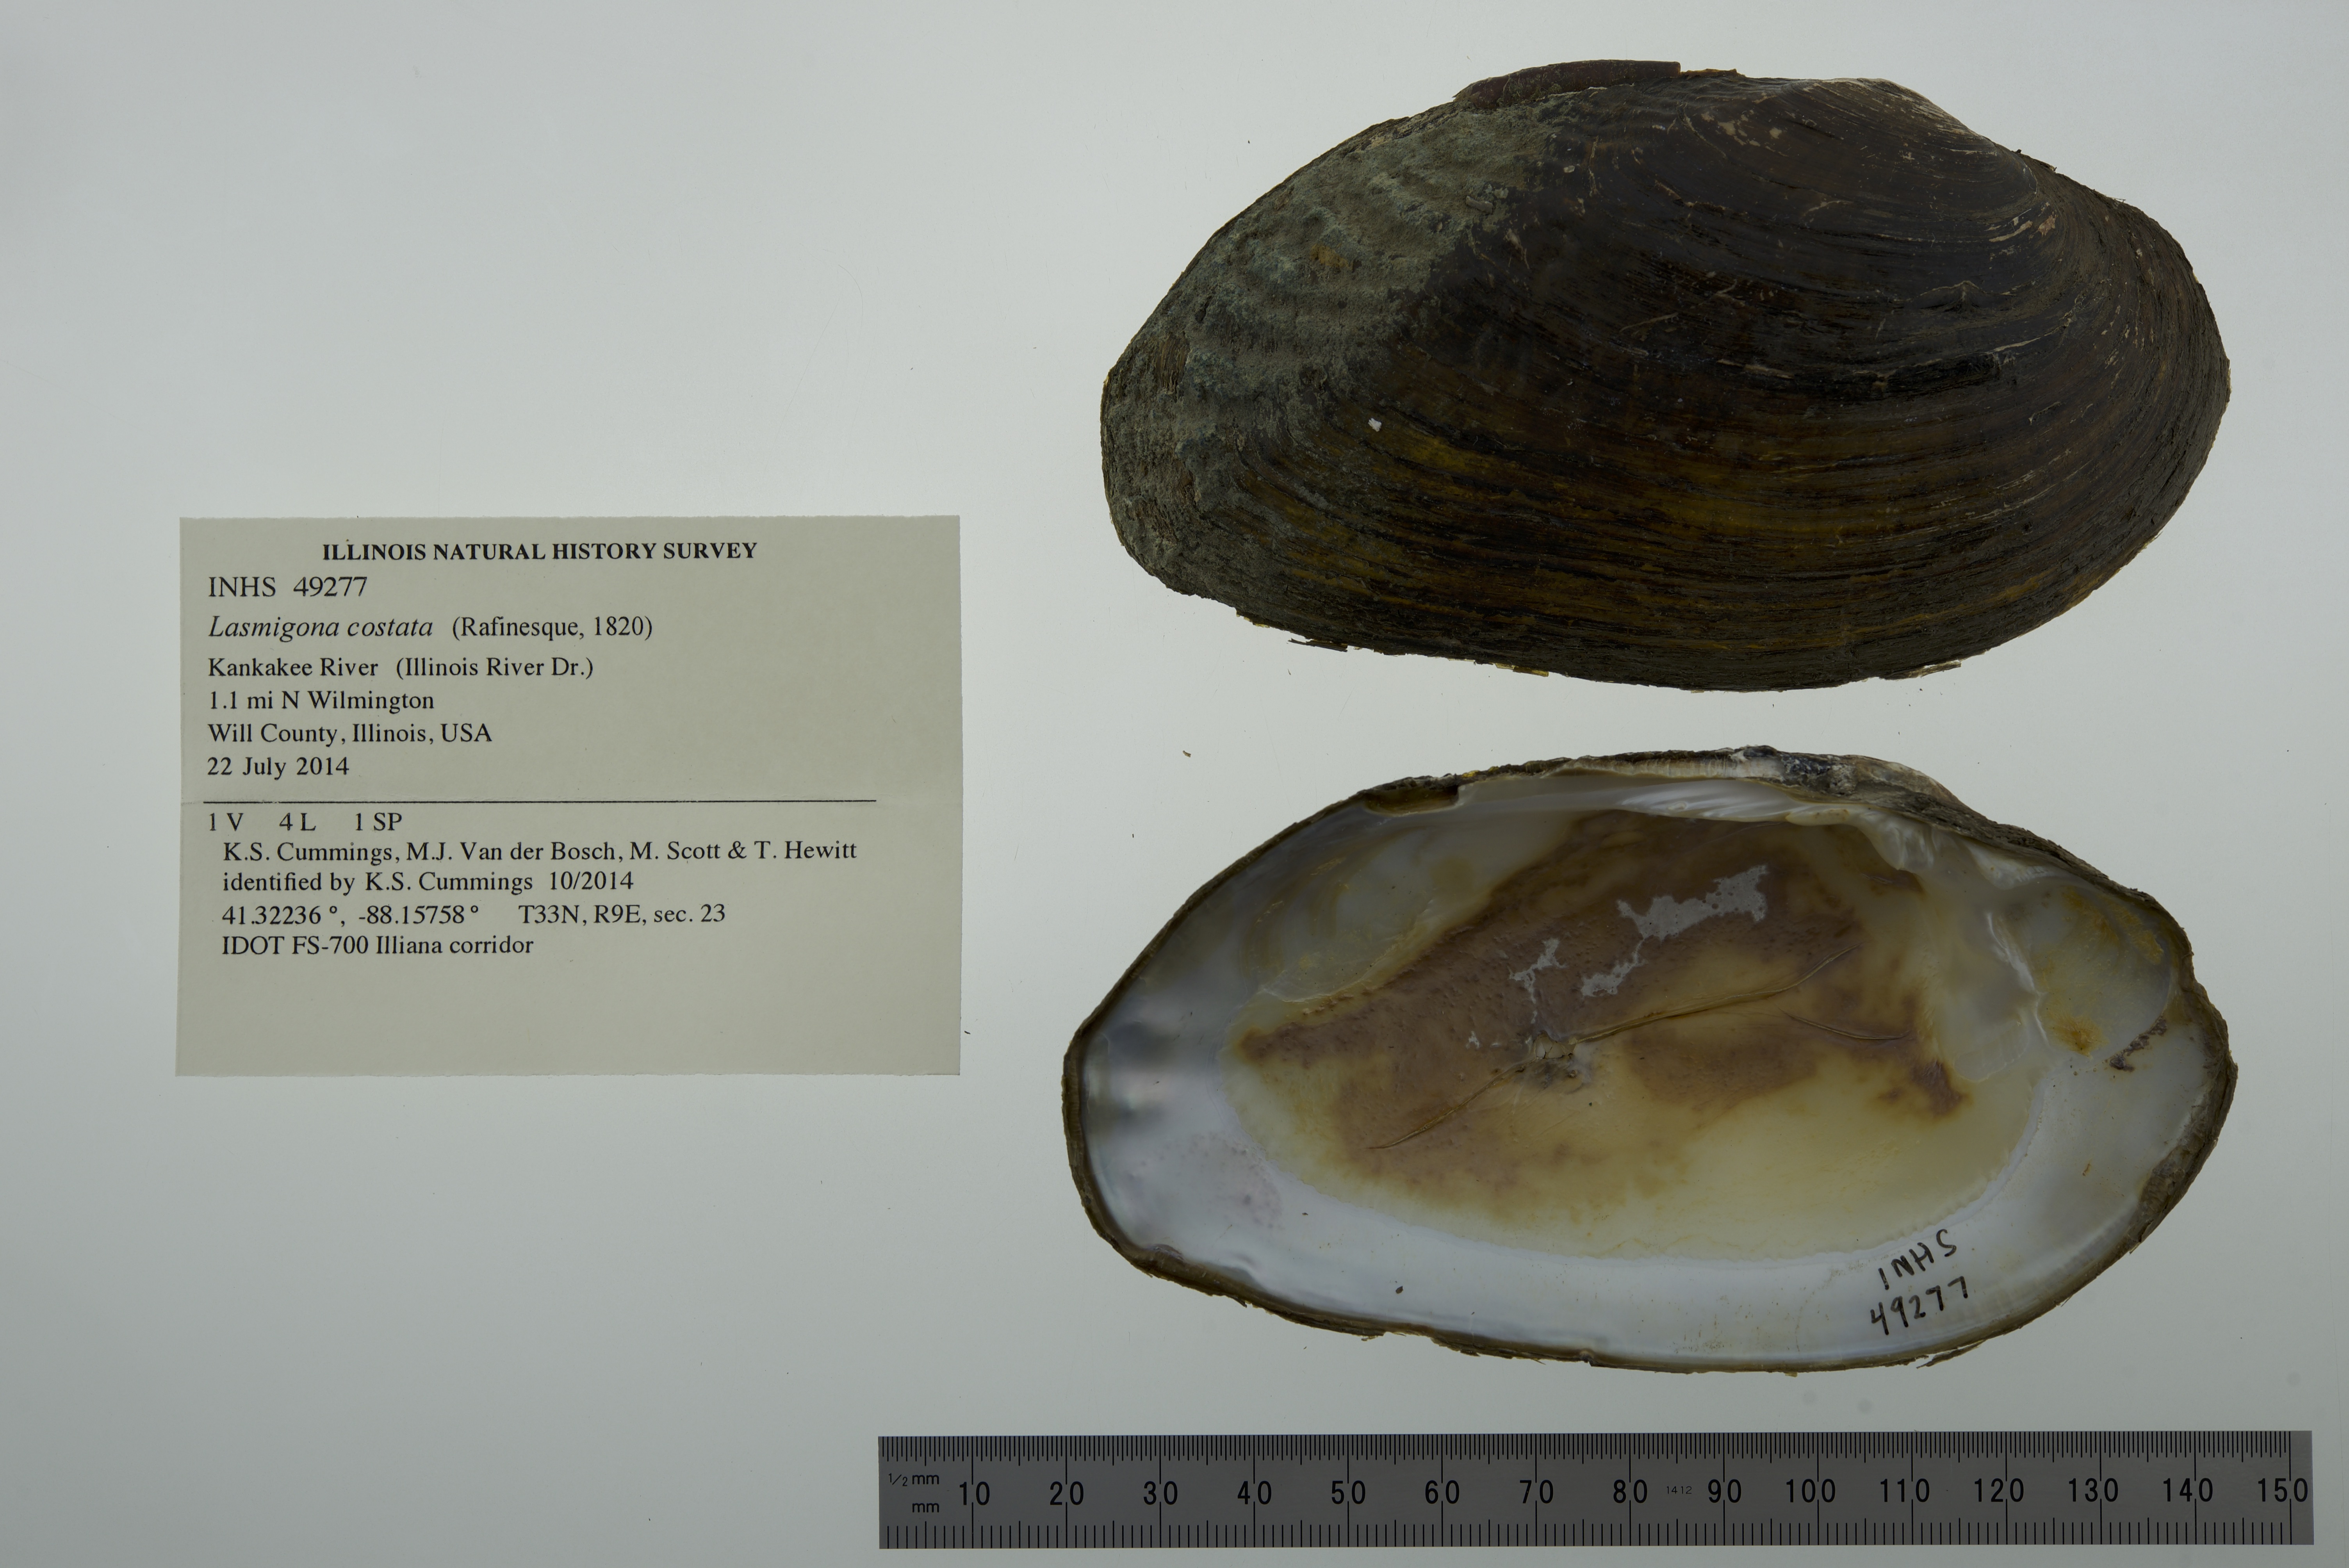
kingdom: Animalia
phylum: Mollusca
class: Bivalvia
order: Unionida
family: Unionidae
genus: Lasmigona
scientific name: Lasmigona costata
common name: Flutedshell
